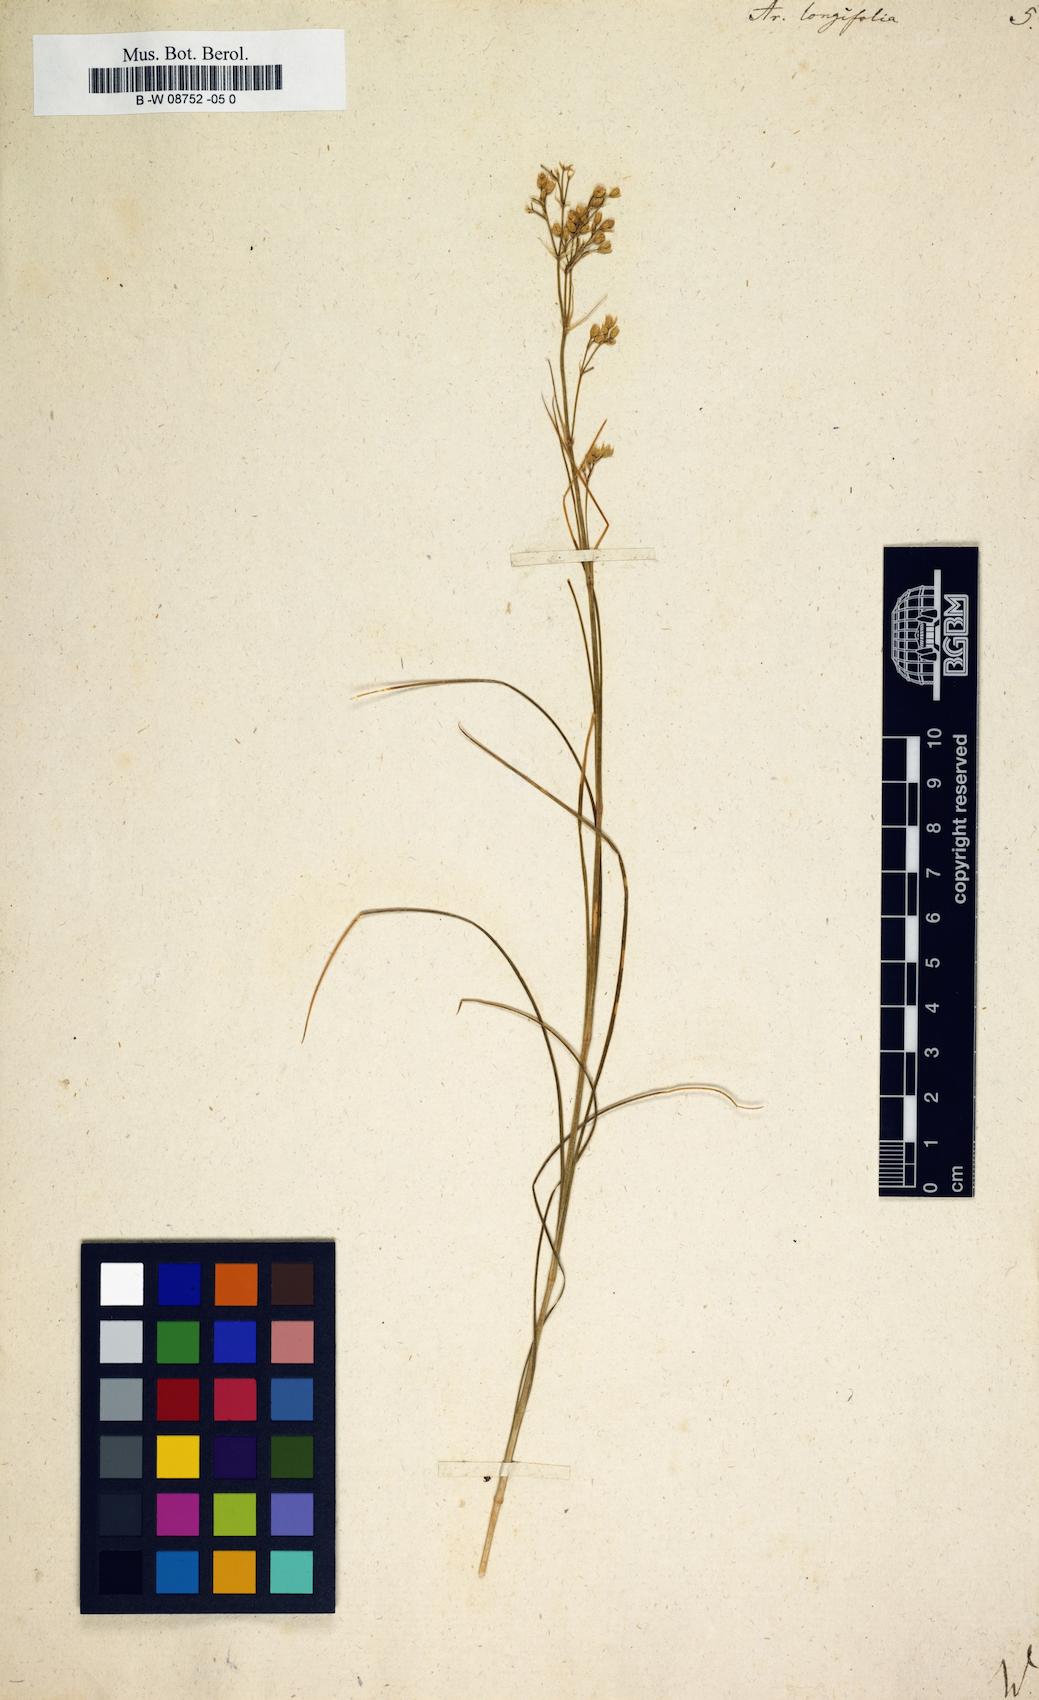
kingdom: Plantae
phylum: Tracheophyta
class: Magnoliopsida
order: Caryophyllales
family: Caryophyllaceae
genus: Eremogone
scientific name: Eremogone
